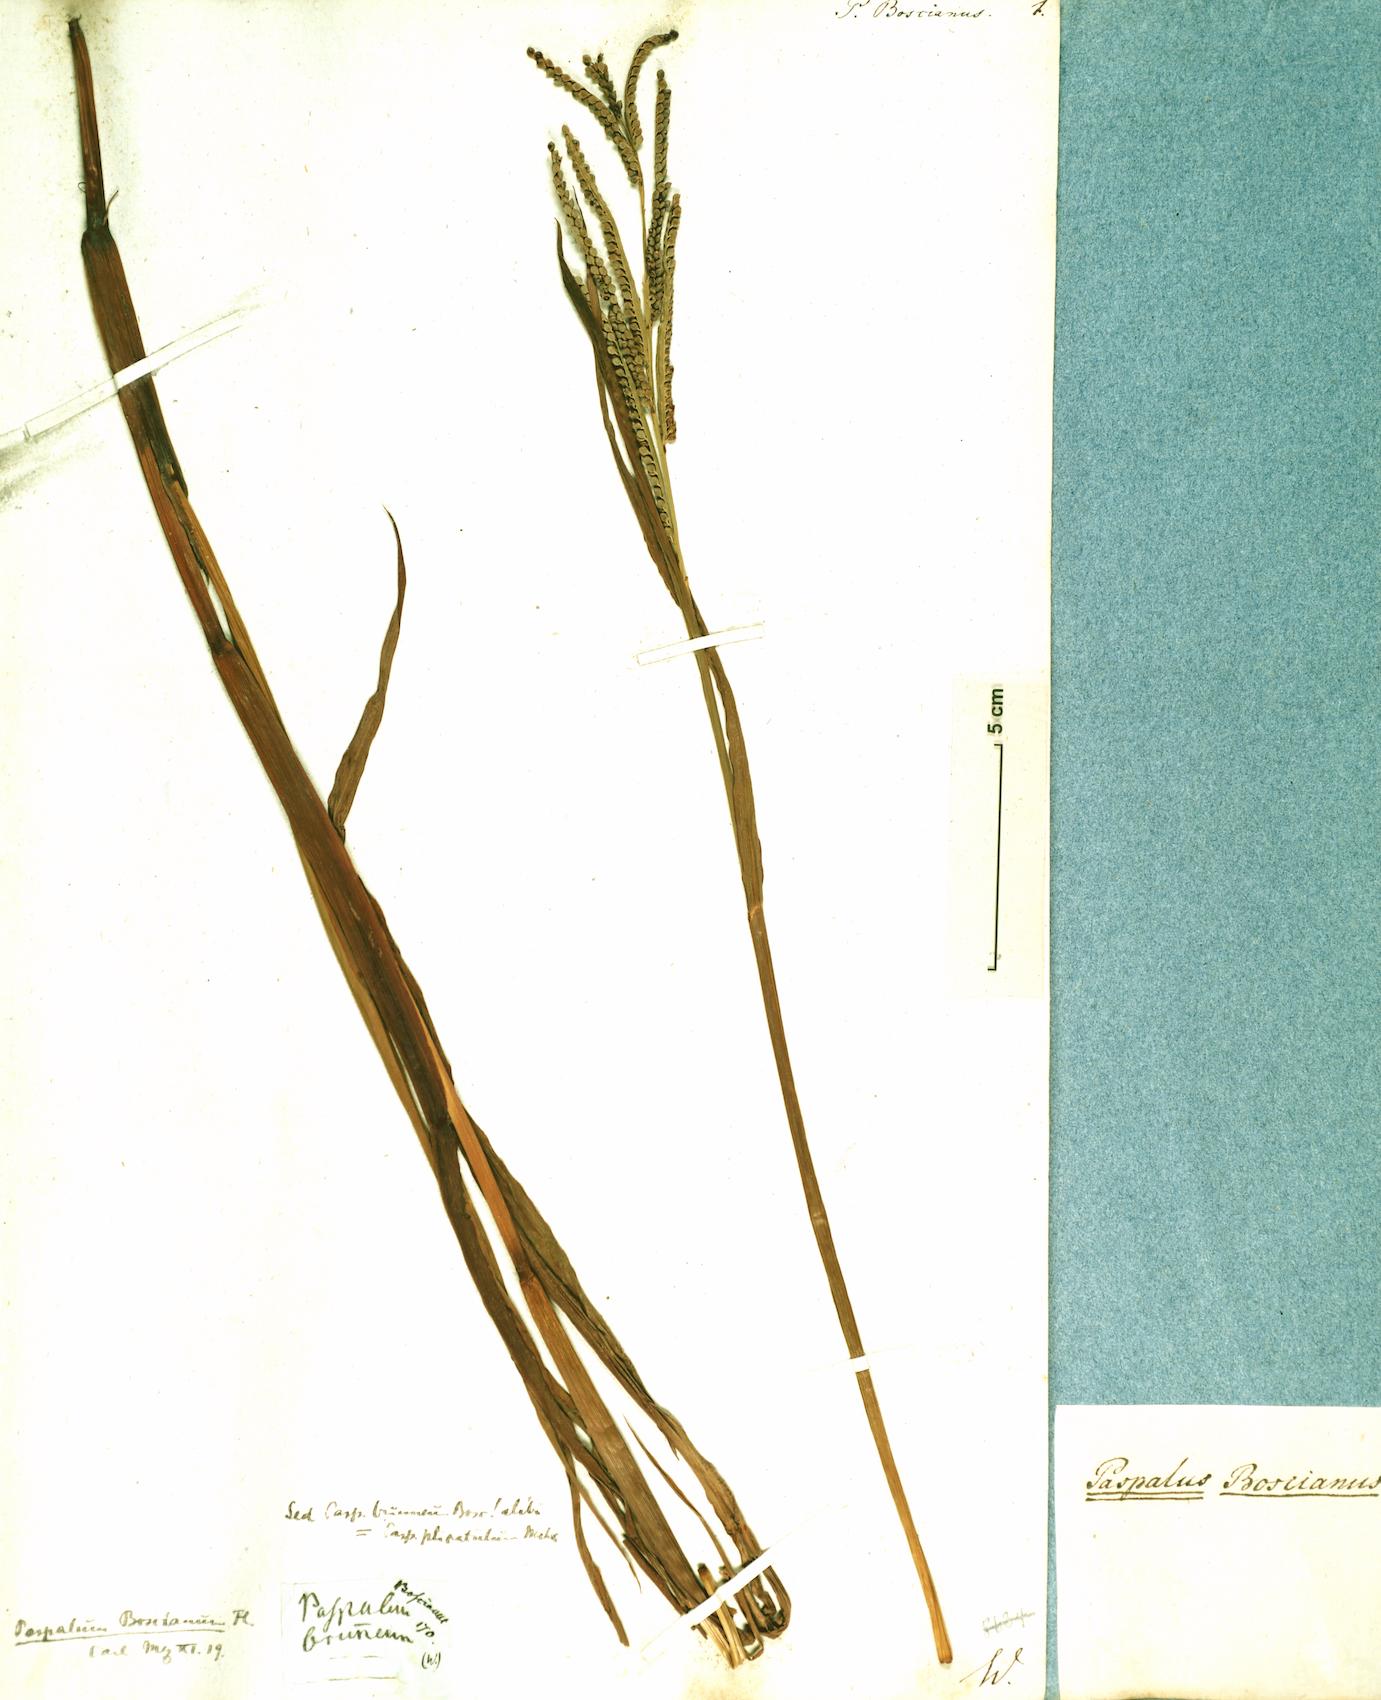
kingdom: Plantae
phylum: Tracheophyta
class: Liliopsida
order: Poales
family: Poaceae
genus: Paspalum
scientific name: Paspalum scrobiculatum
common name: Kodo millet
